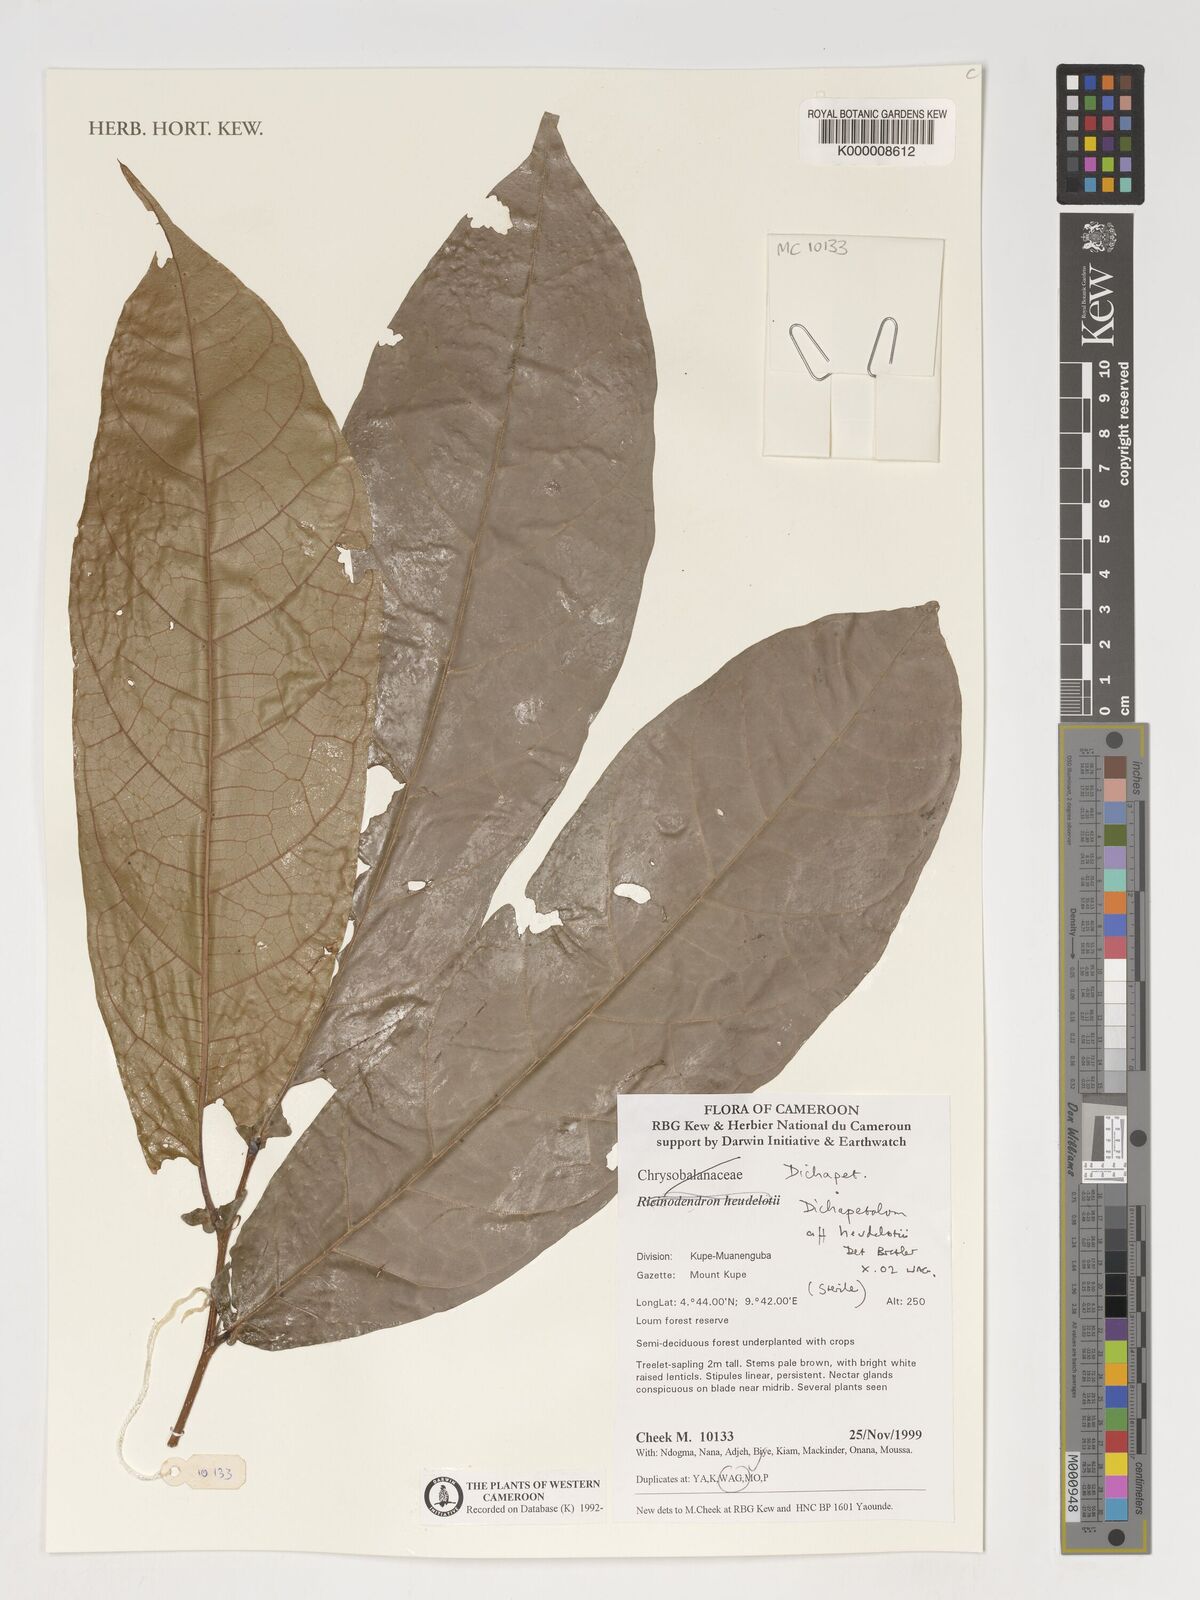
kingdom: Plantae
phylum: Tracheophyta
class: Magnoliopsida
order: Malpighiales
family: Dichapetalaceae
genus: Dichapetalum
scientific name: Dichapetalum heudelotii
